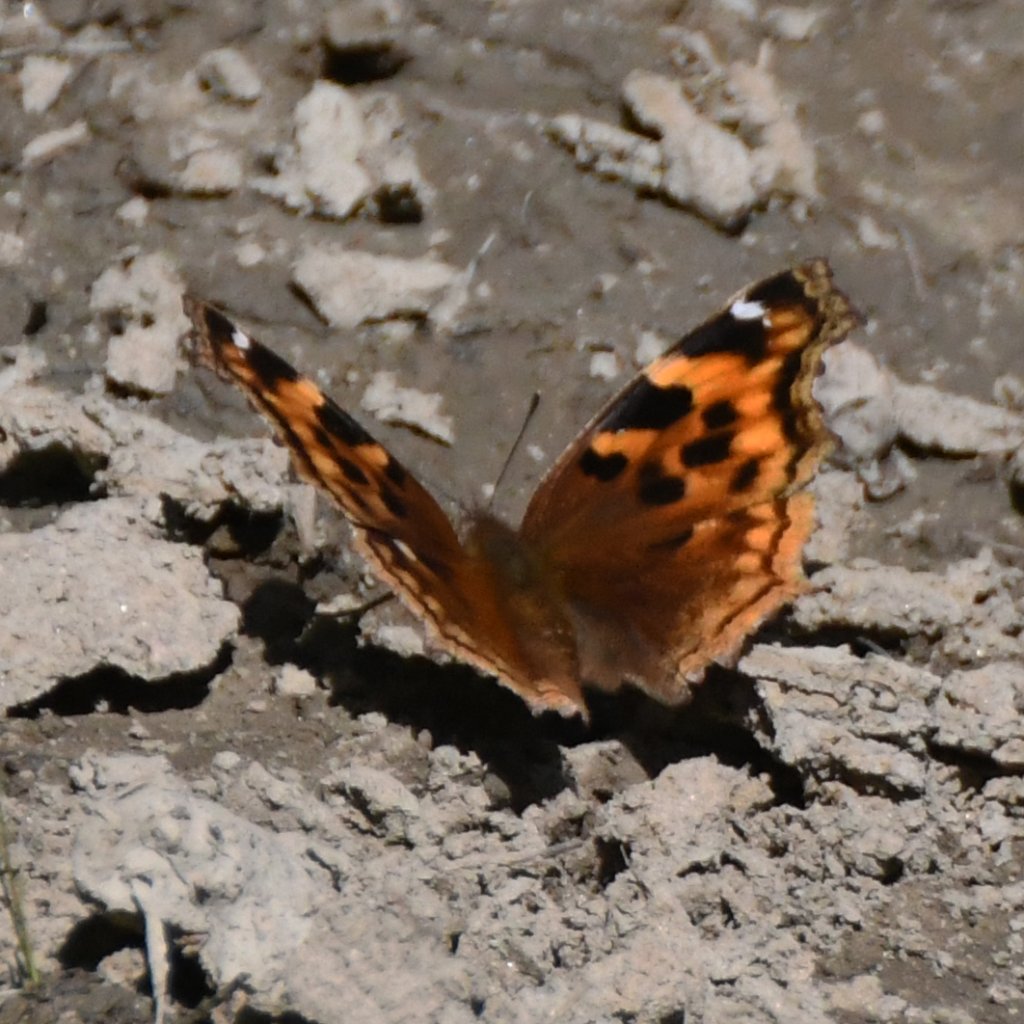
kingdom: Animalia
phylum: Arthropoda
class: Insecta
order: Lepidoptera
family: Nymphalidae
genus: Polygonia
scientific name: Polygonia vaualbum
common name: Compton Tortoiseshell
